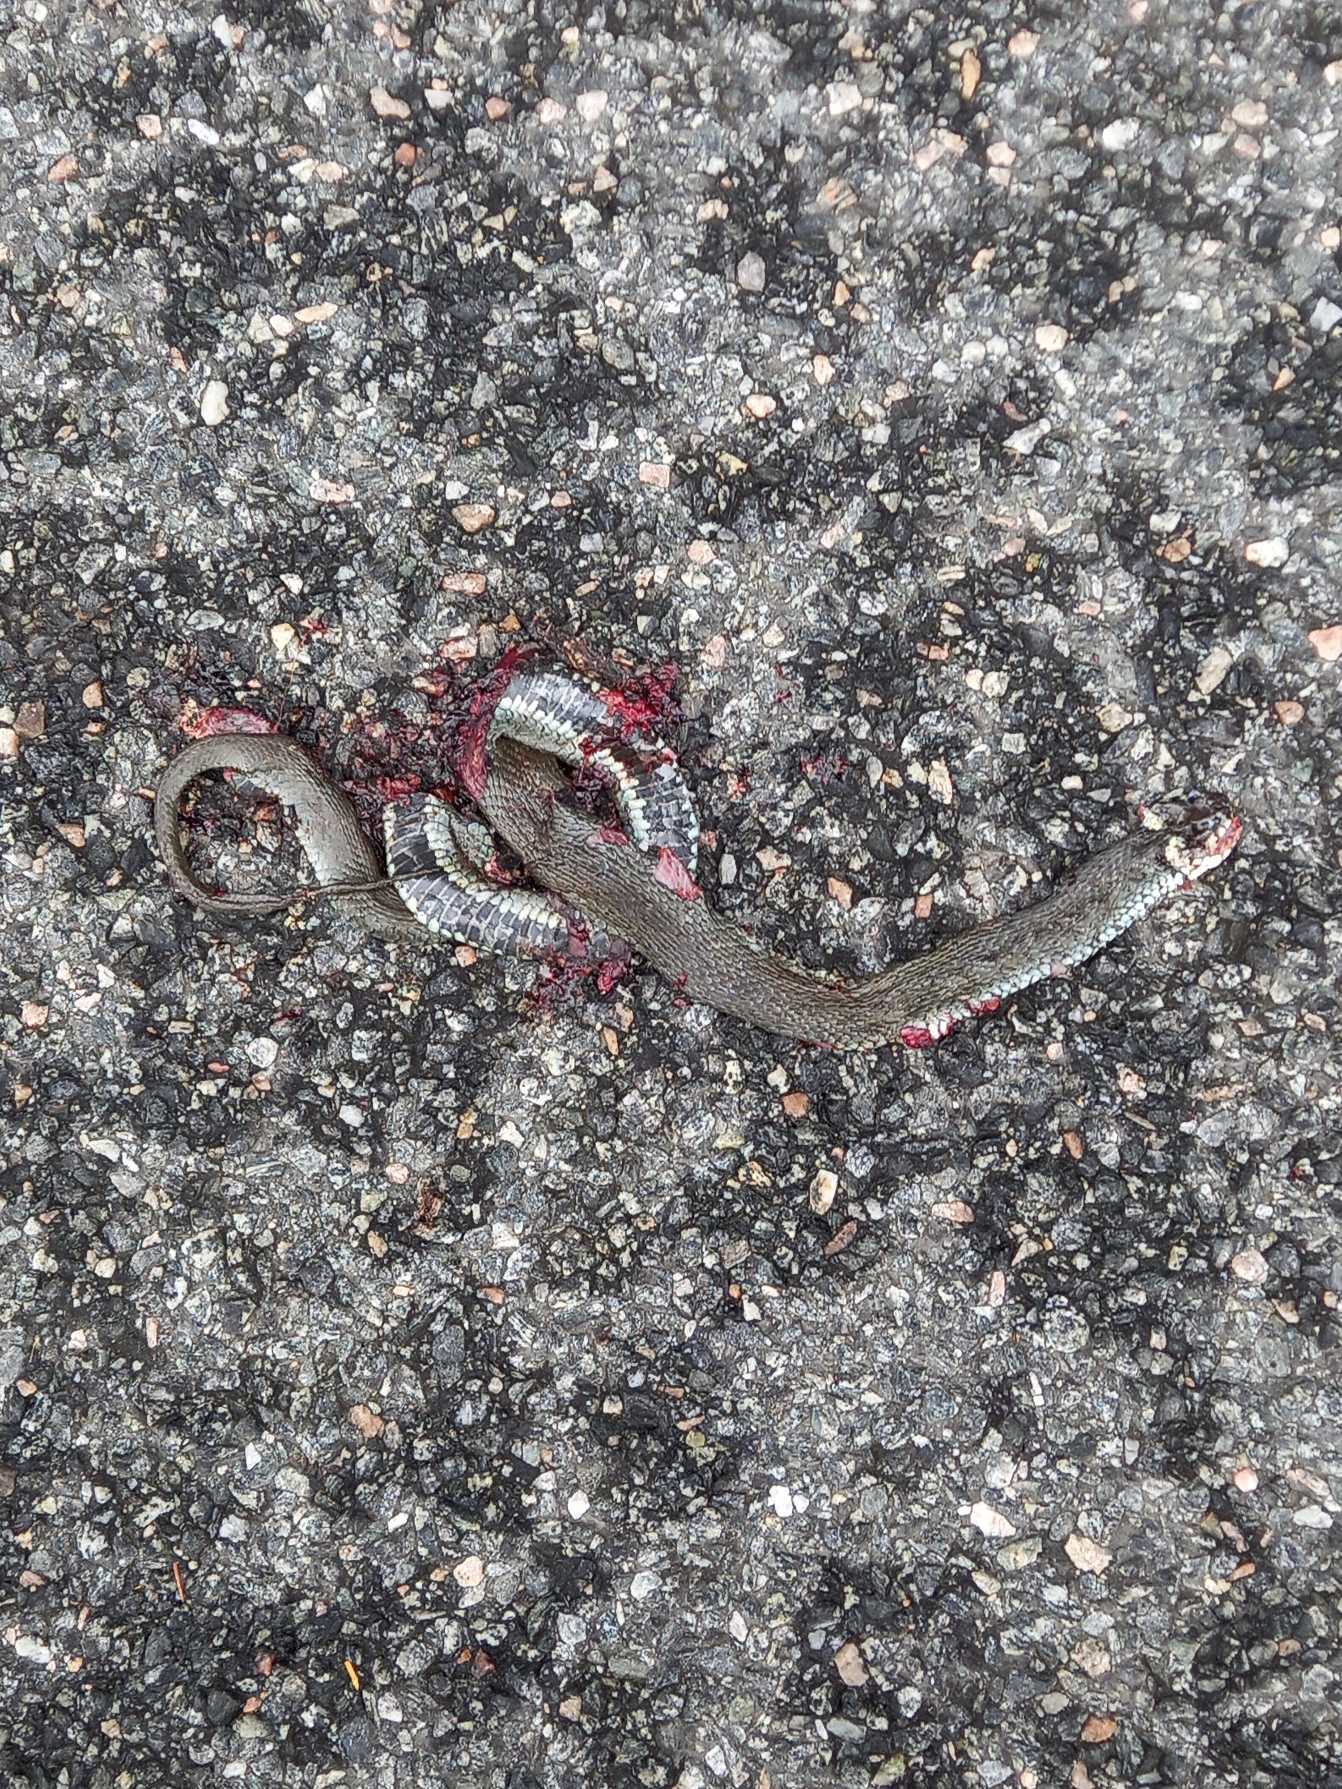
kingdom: Animalia
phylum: Chordata
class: Squamata
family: Colubridae
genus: Natrix
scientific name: Natrix natrix
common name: Snog
